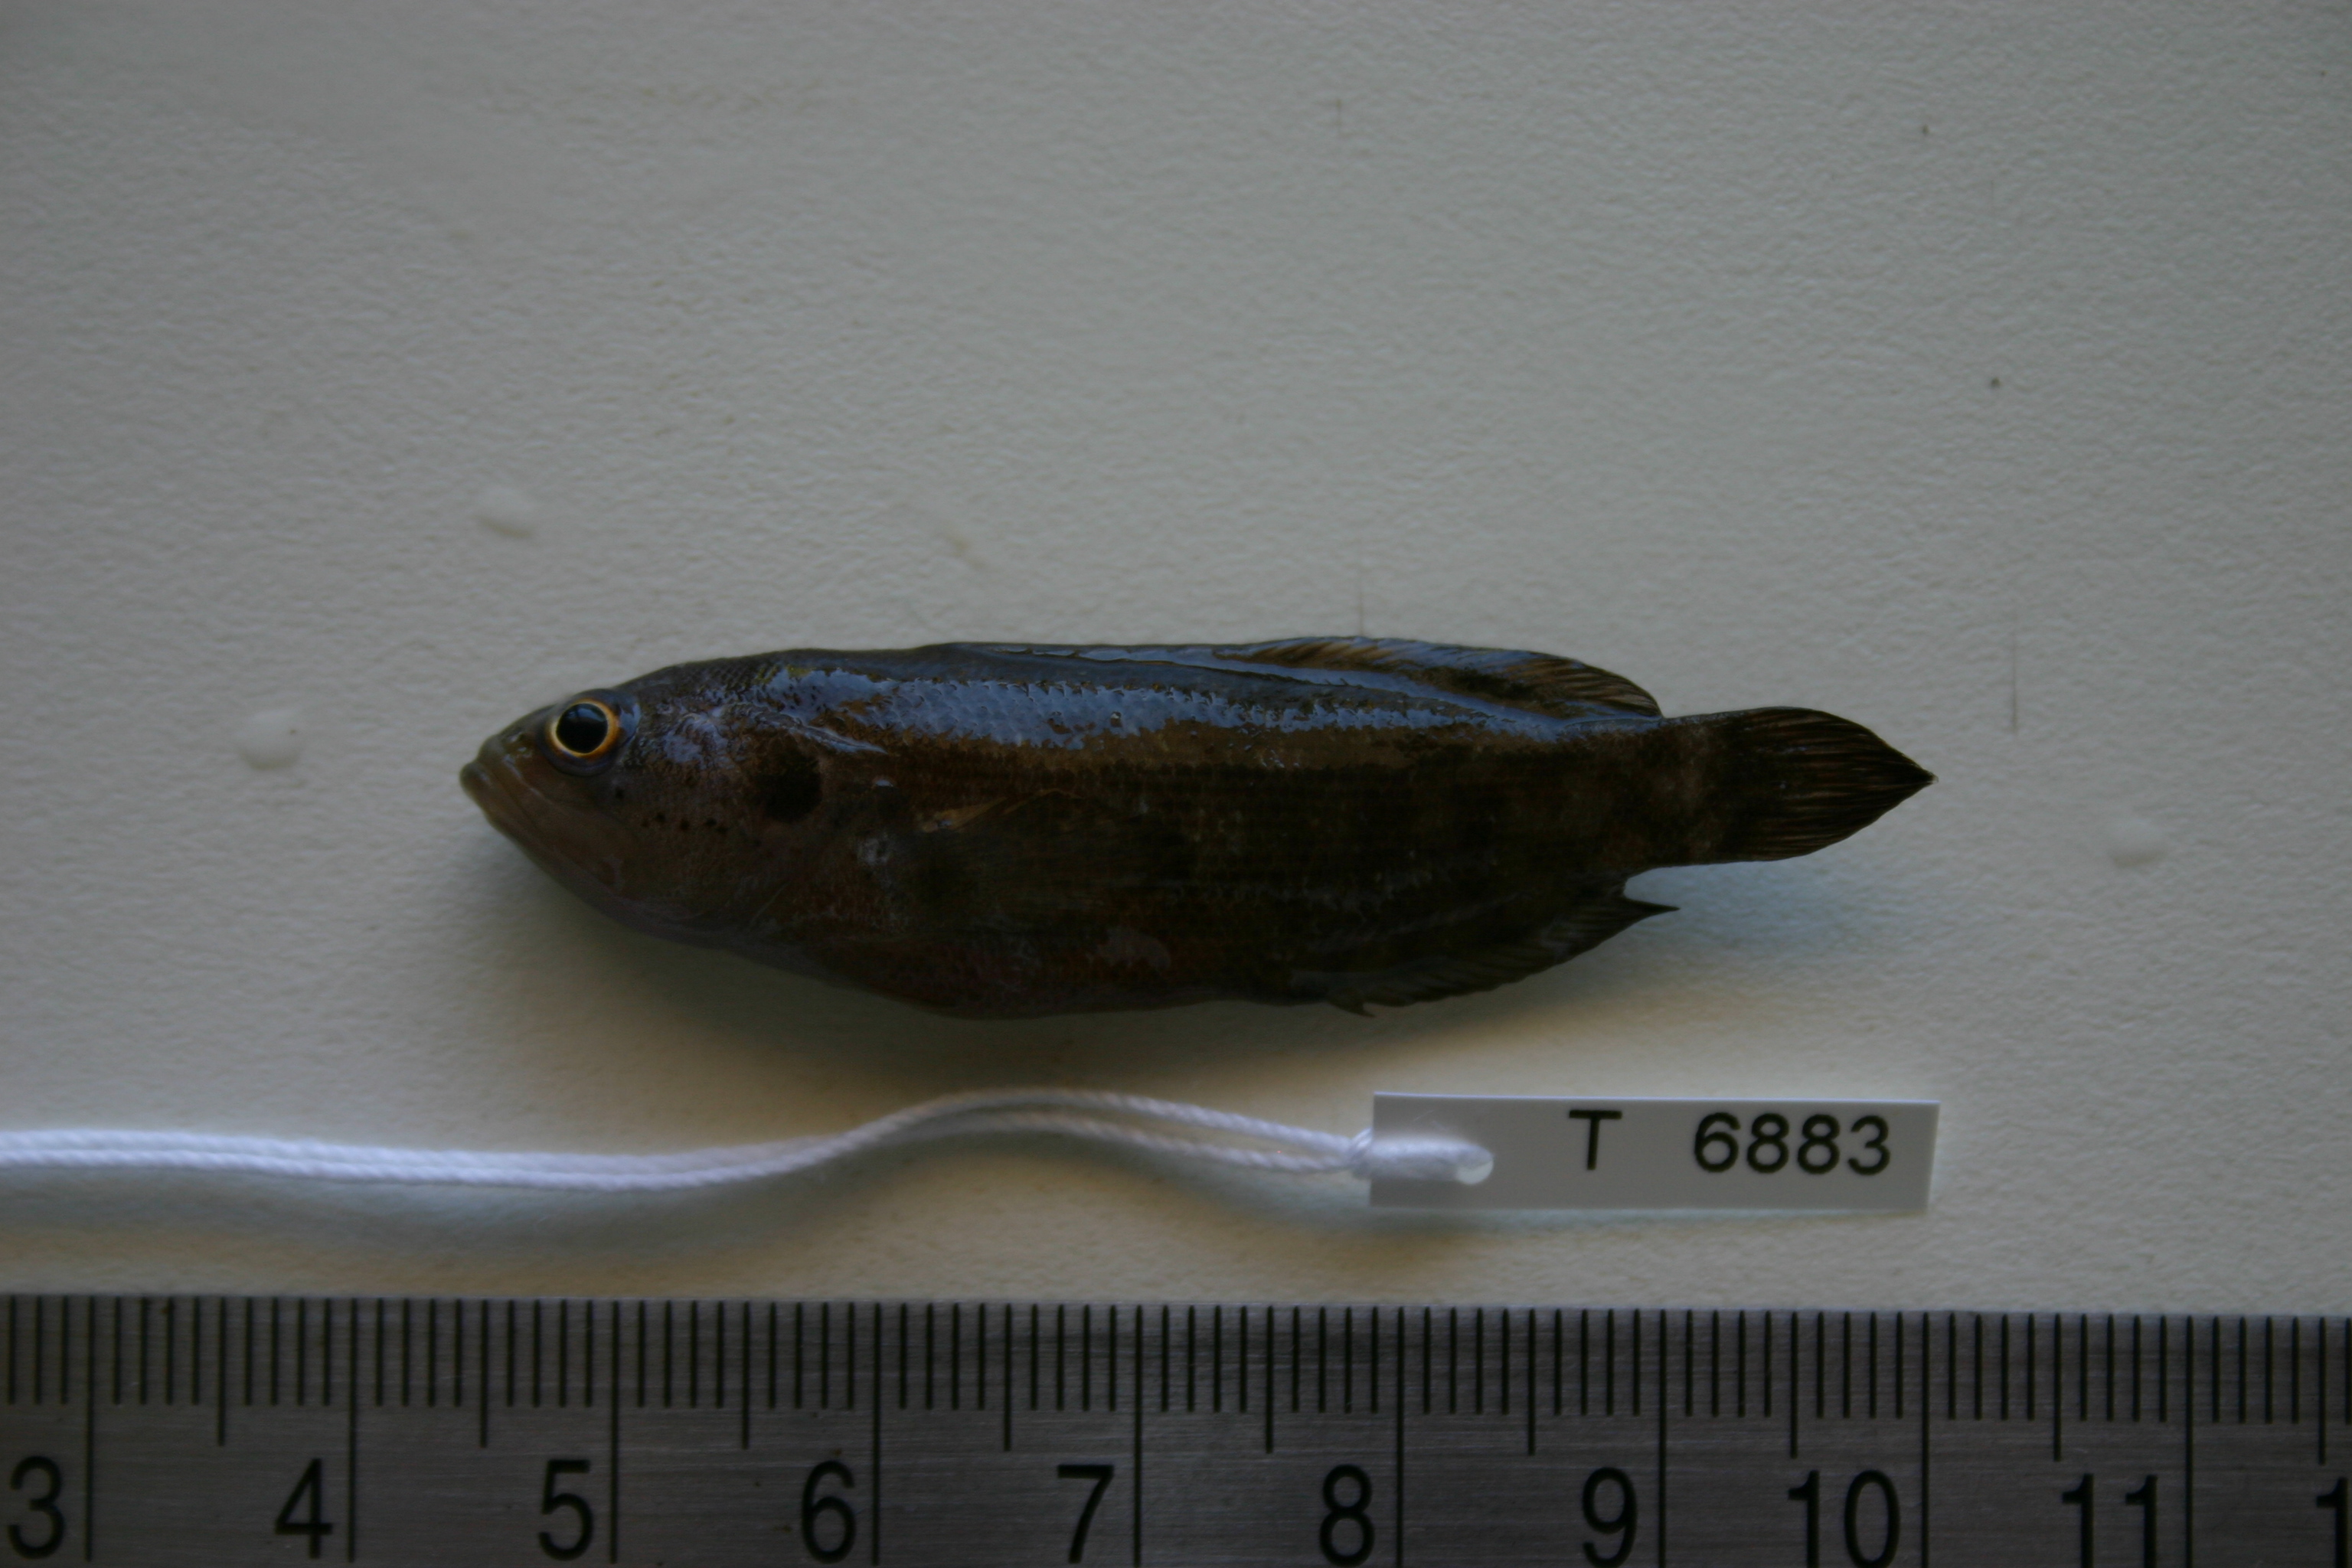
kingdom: Animalia
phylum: Chordata
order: Perciformes
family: Serranidae
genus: Pseudogramma
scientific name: Pseudogramma polyacantha
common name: Bold-spot soapfish
